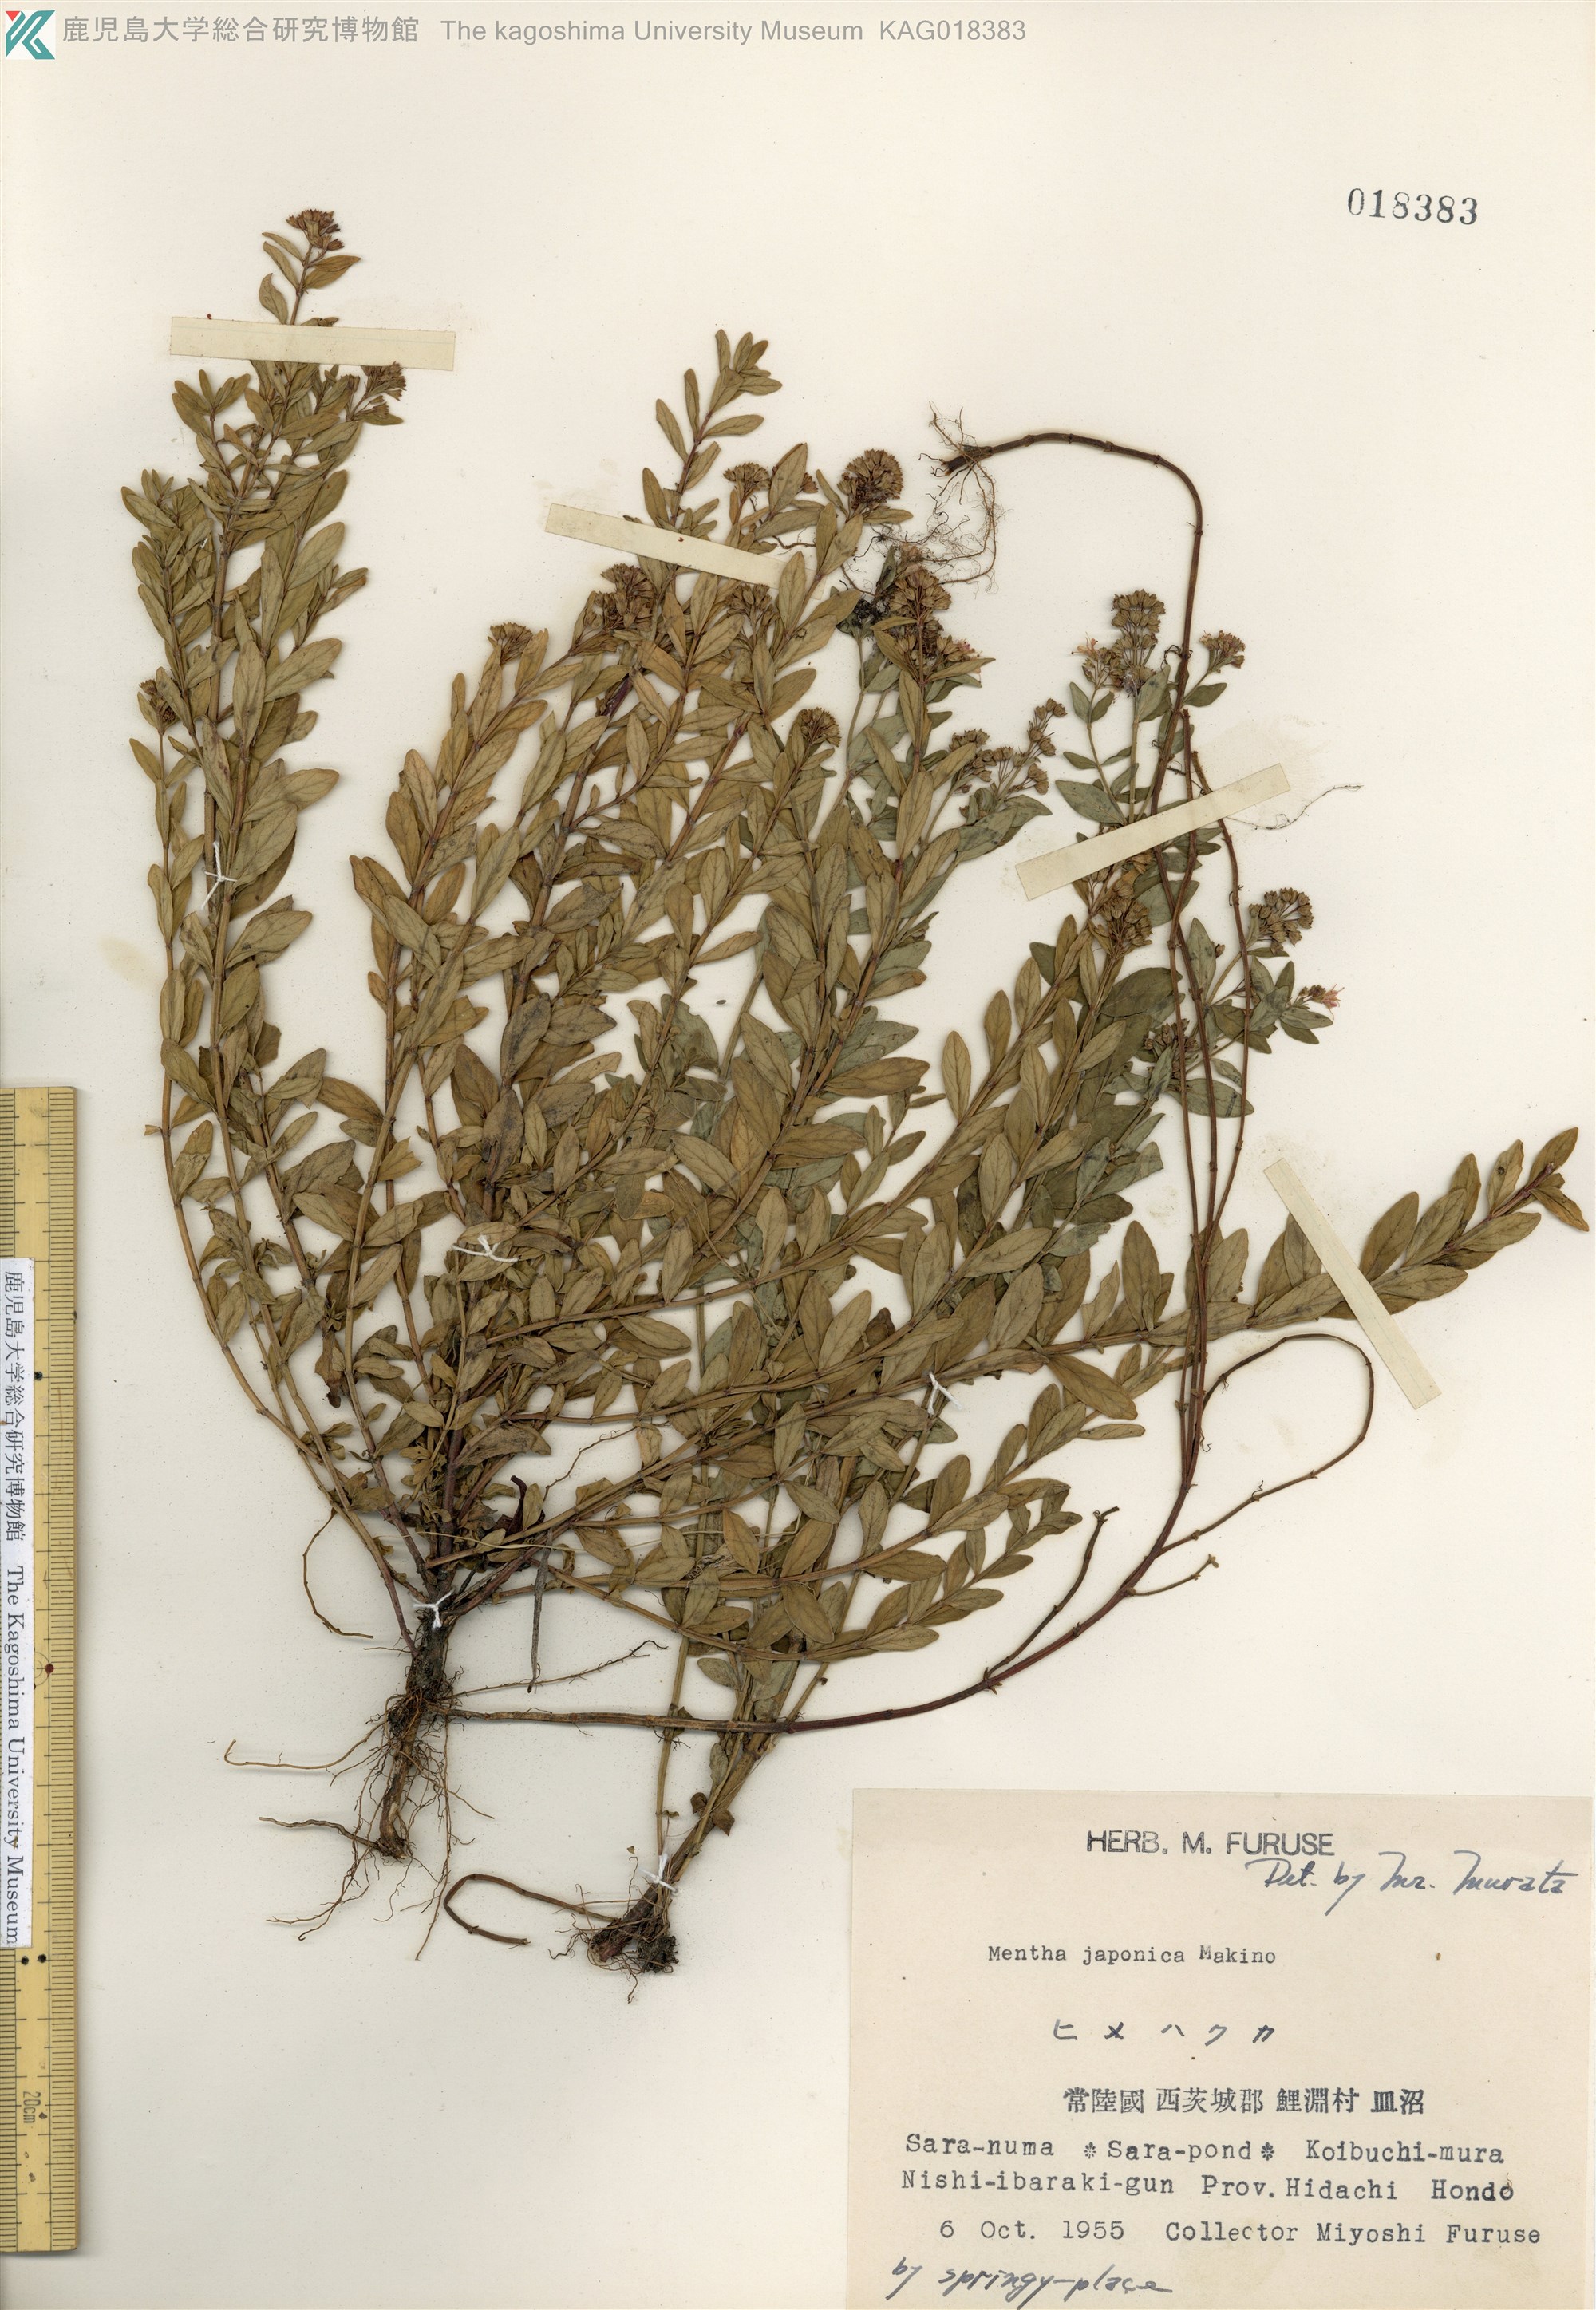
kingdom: Plantae
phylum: Tracheophyta
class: Magnoliopsida
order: Lamiales
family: Lamiaceae
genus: Mentha
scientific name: Mentha japonica
